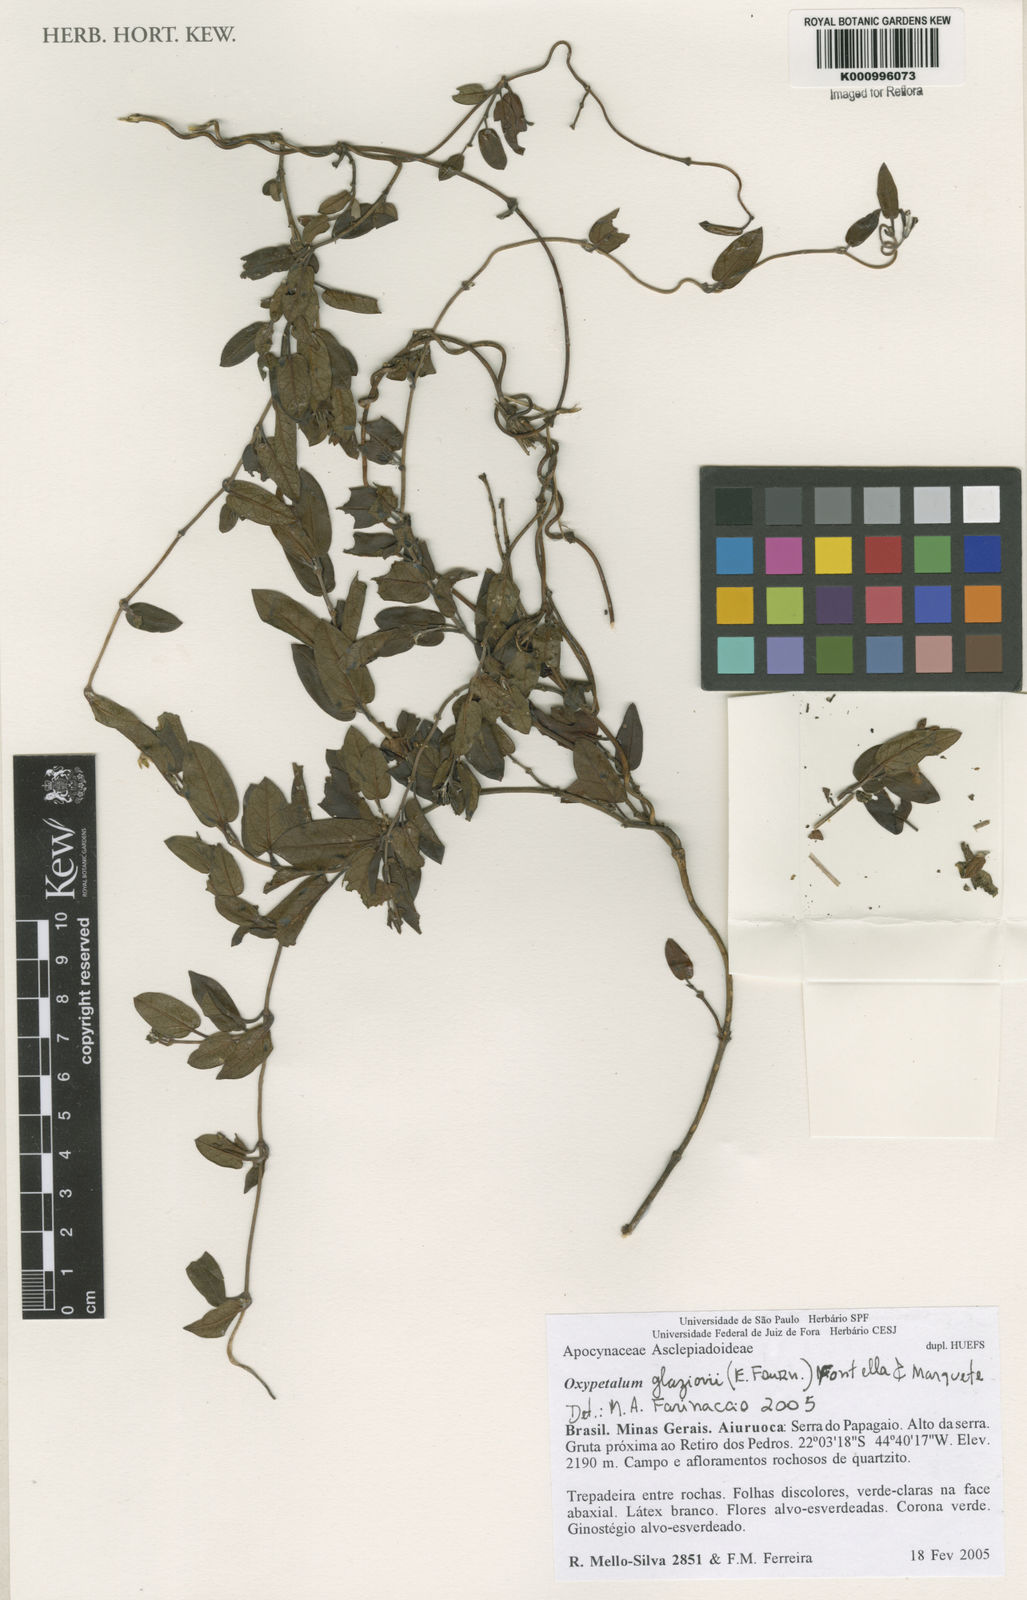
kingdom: Plantae
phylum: Tracheophyta
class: Magnoliopsida
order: Gentianales
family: Apocynaceae
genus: Oxypetalum
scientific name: Oxypetalum insigne
